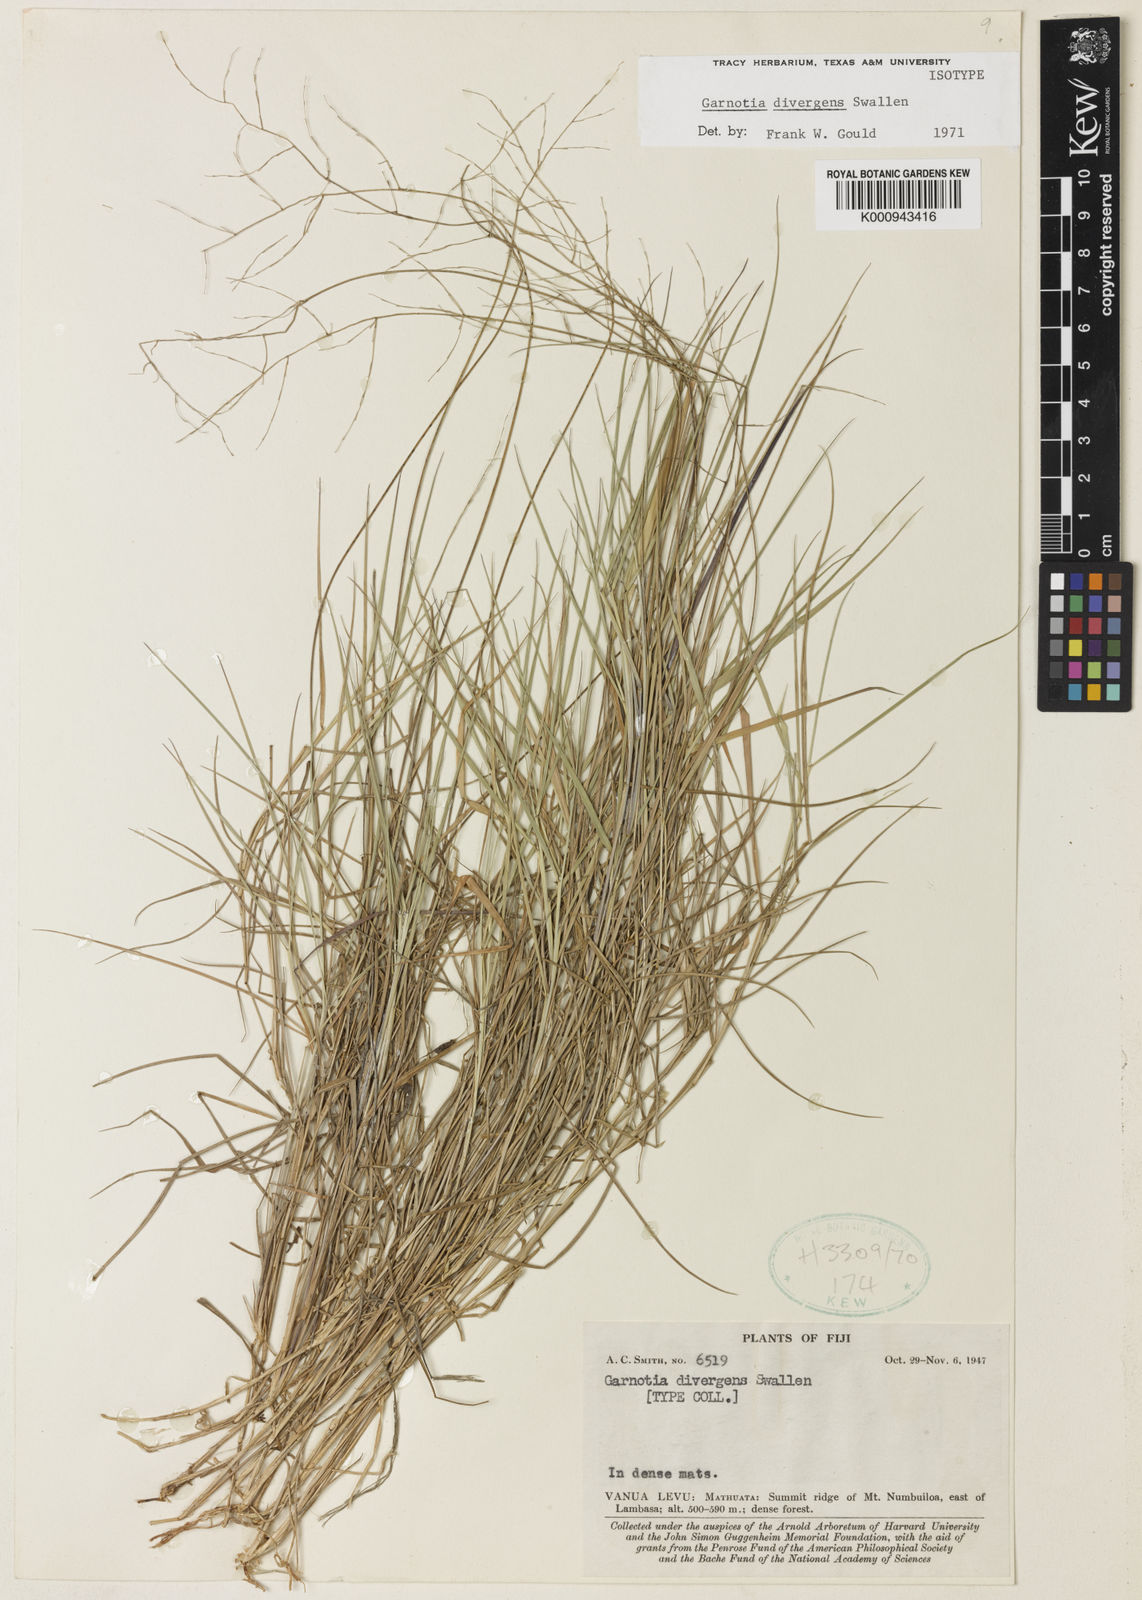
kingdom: Plantae
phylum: Tracheophyta
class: Liliopsida
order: Poales
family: Poaceae
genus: Garnotia
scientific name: Garnotia divergens
